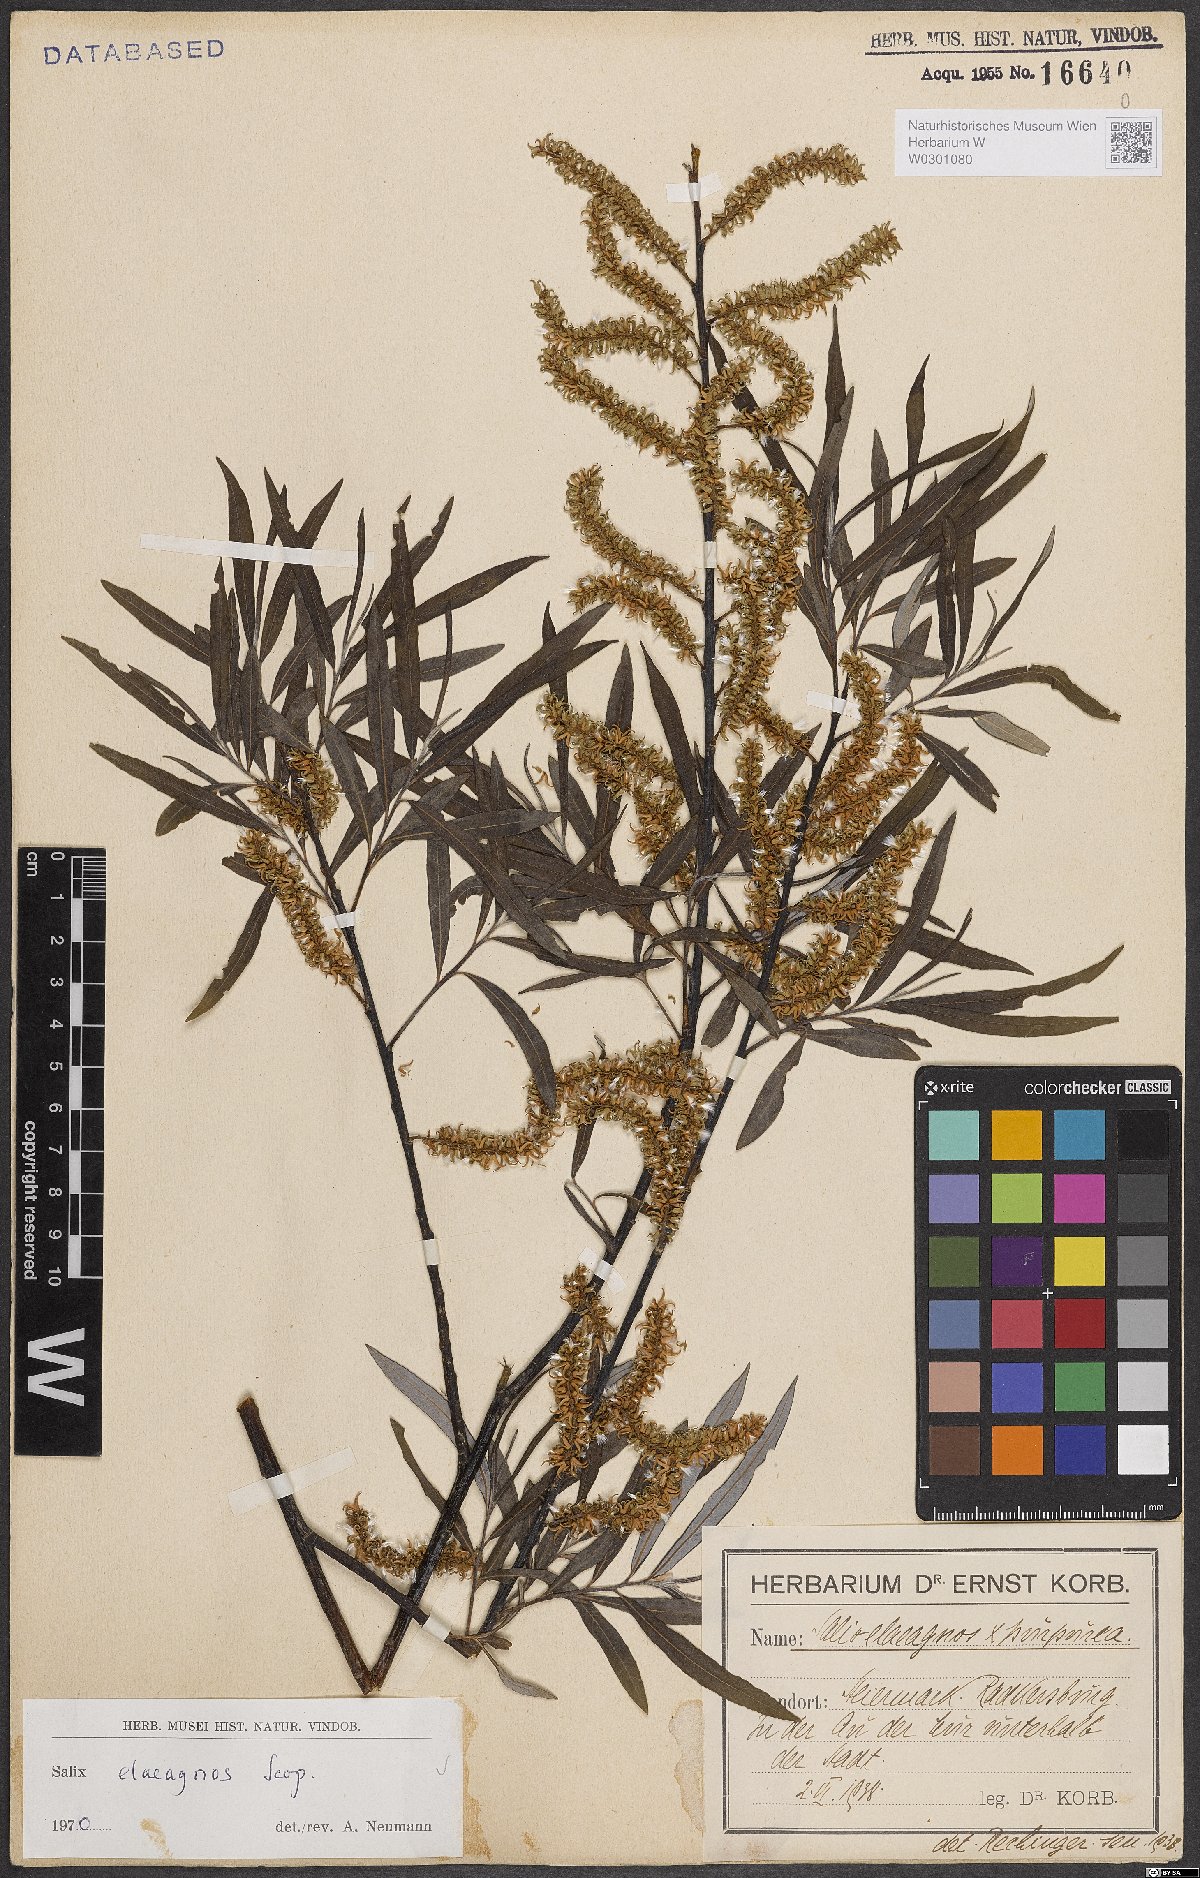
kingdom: Plantae
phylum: Tracheophyta
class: Magnoliopsida
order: Malpighiales
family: Salicaceae
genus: Salix
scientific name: Salix eleagnos
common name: Elaeagnus willow
